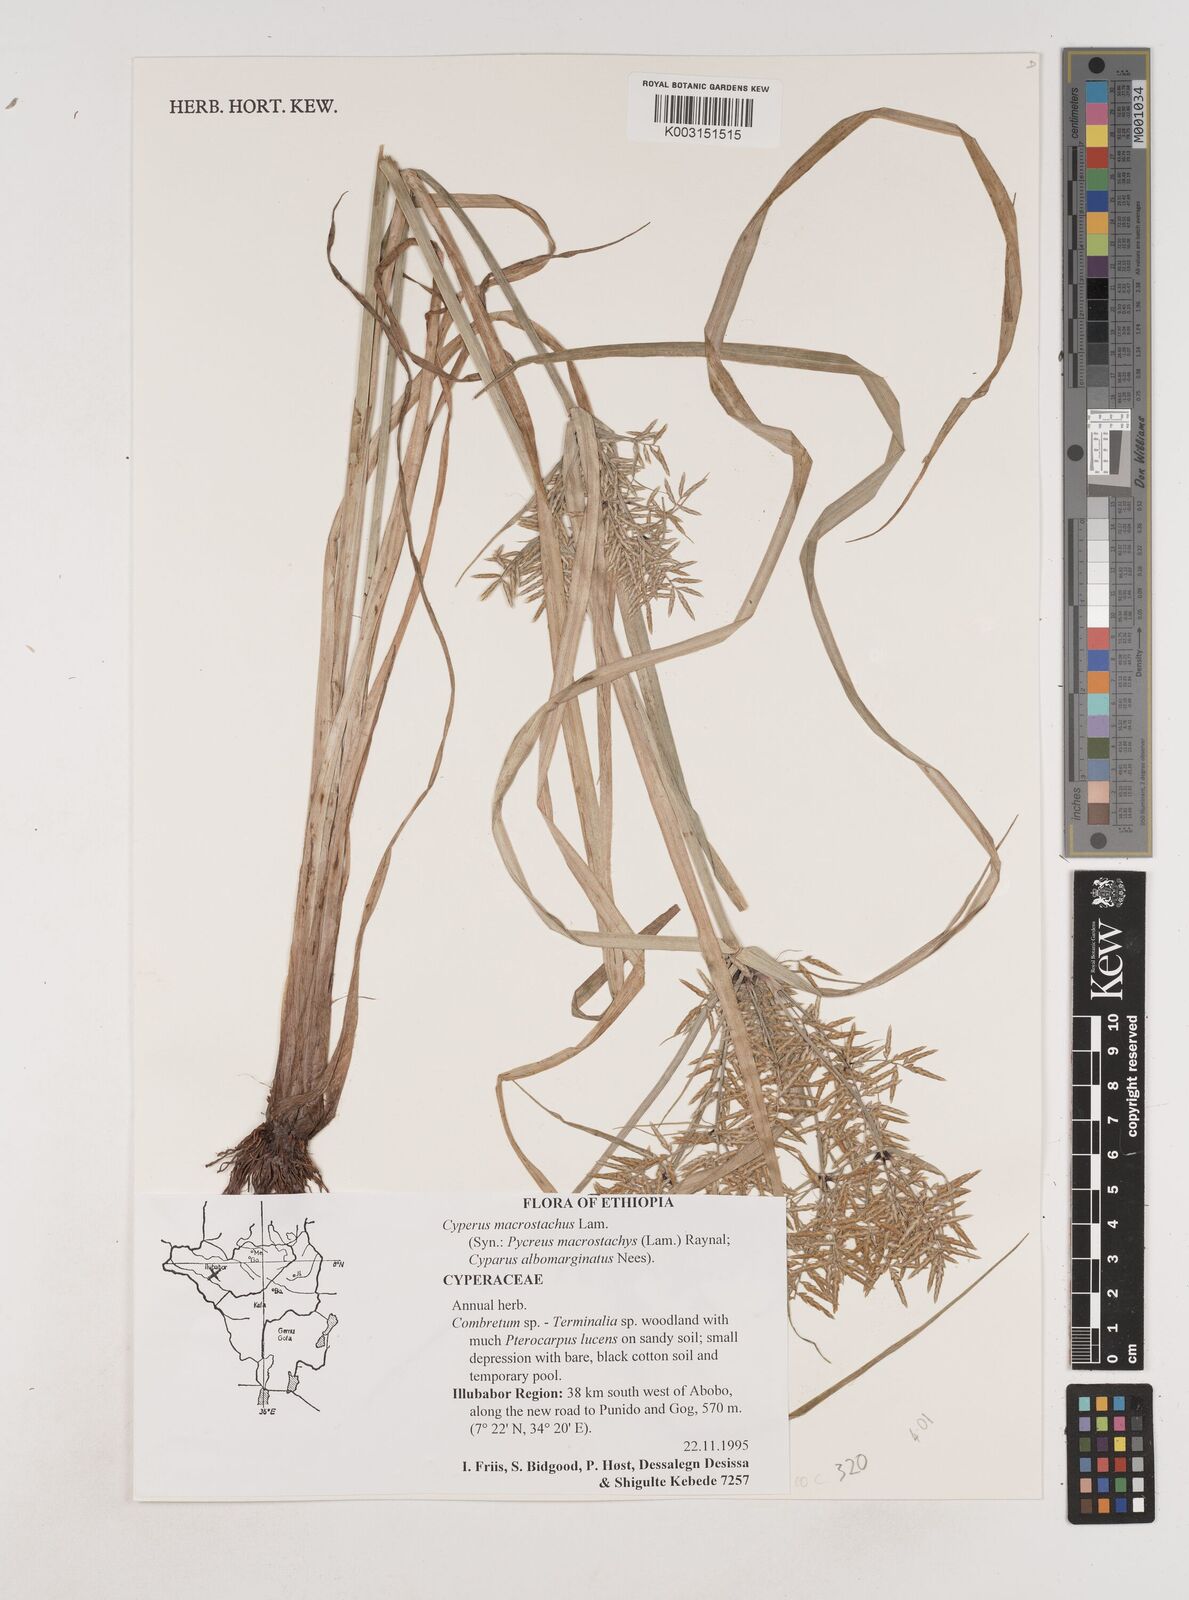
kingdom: Plantae
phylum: Tracheophyta
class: Liliopsida
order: Poales
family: Cyperaceae
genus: Cyperus
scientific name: Cyperus
